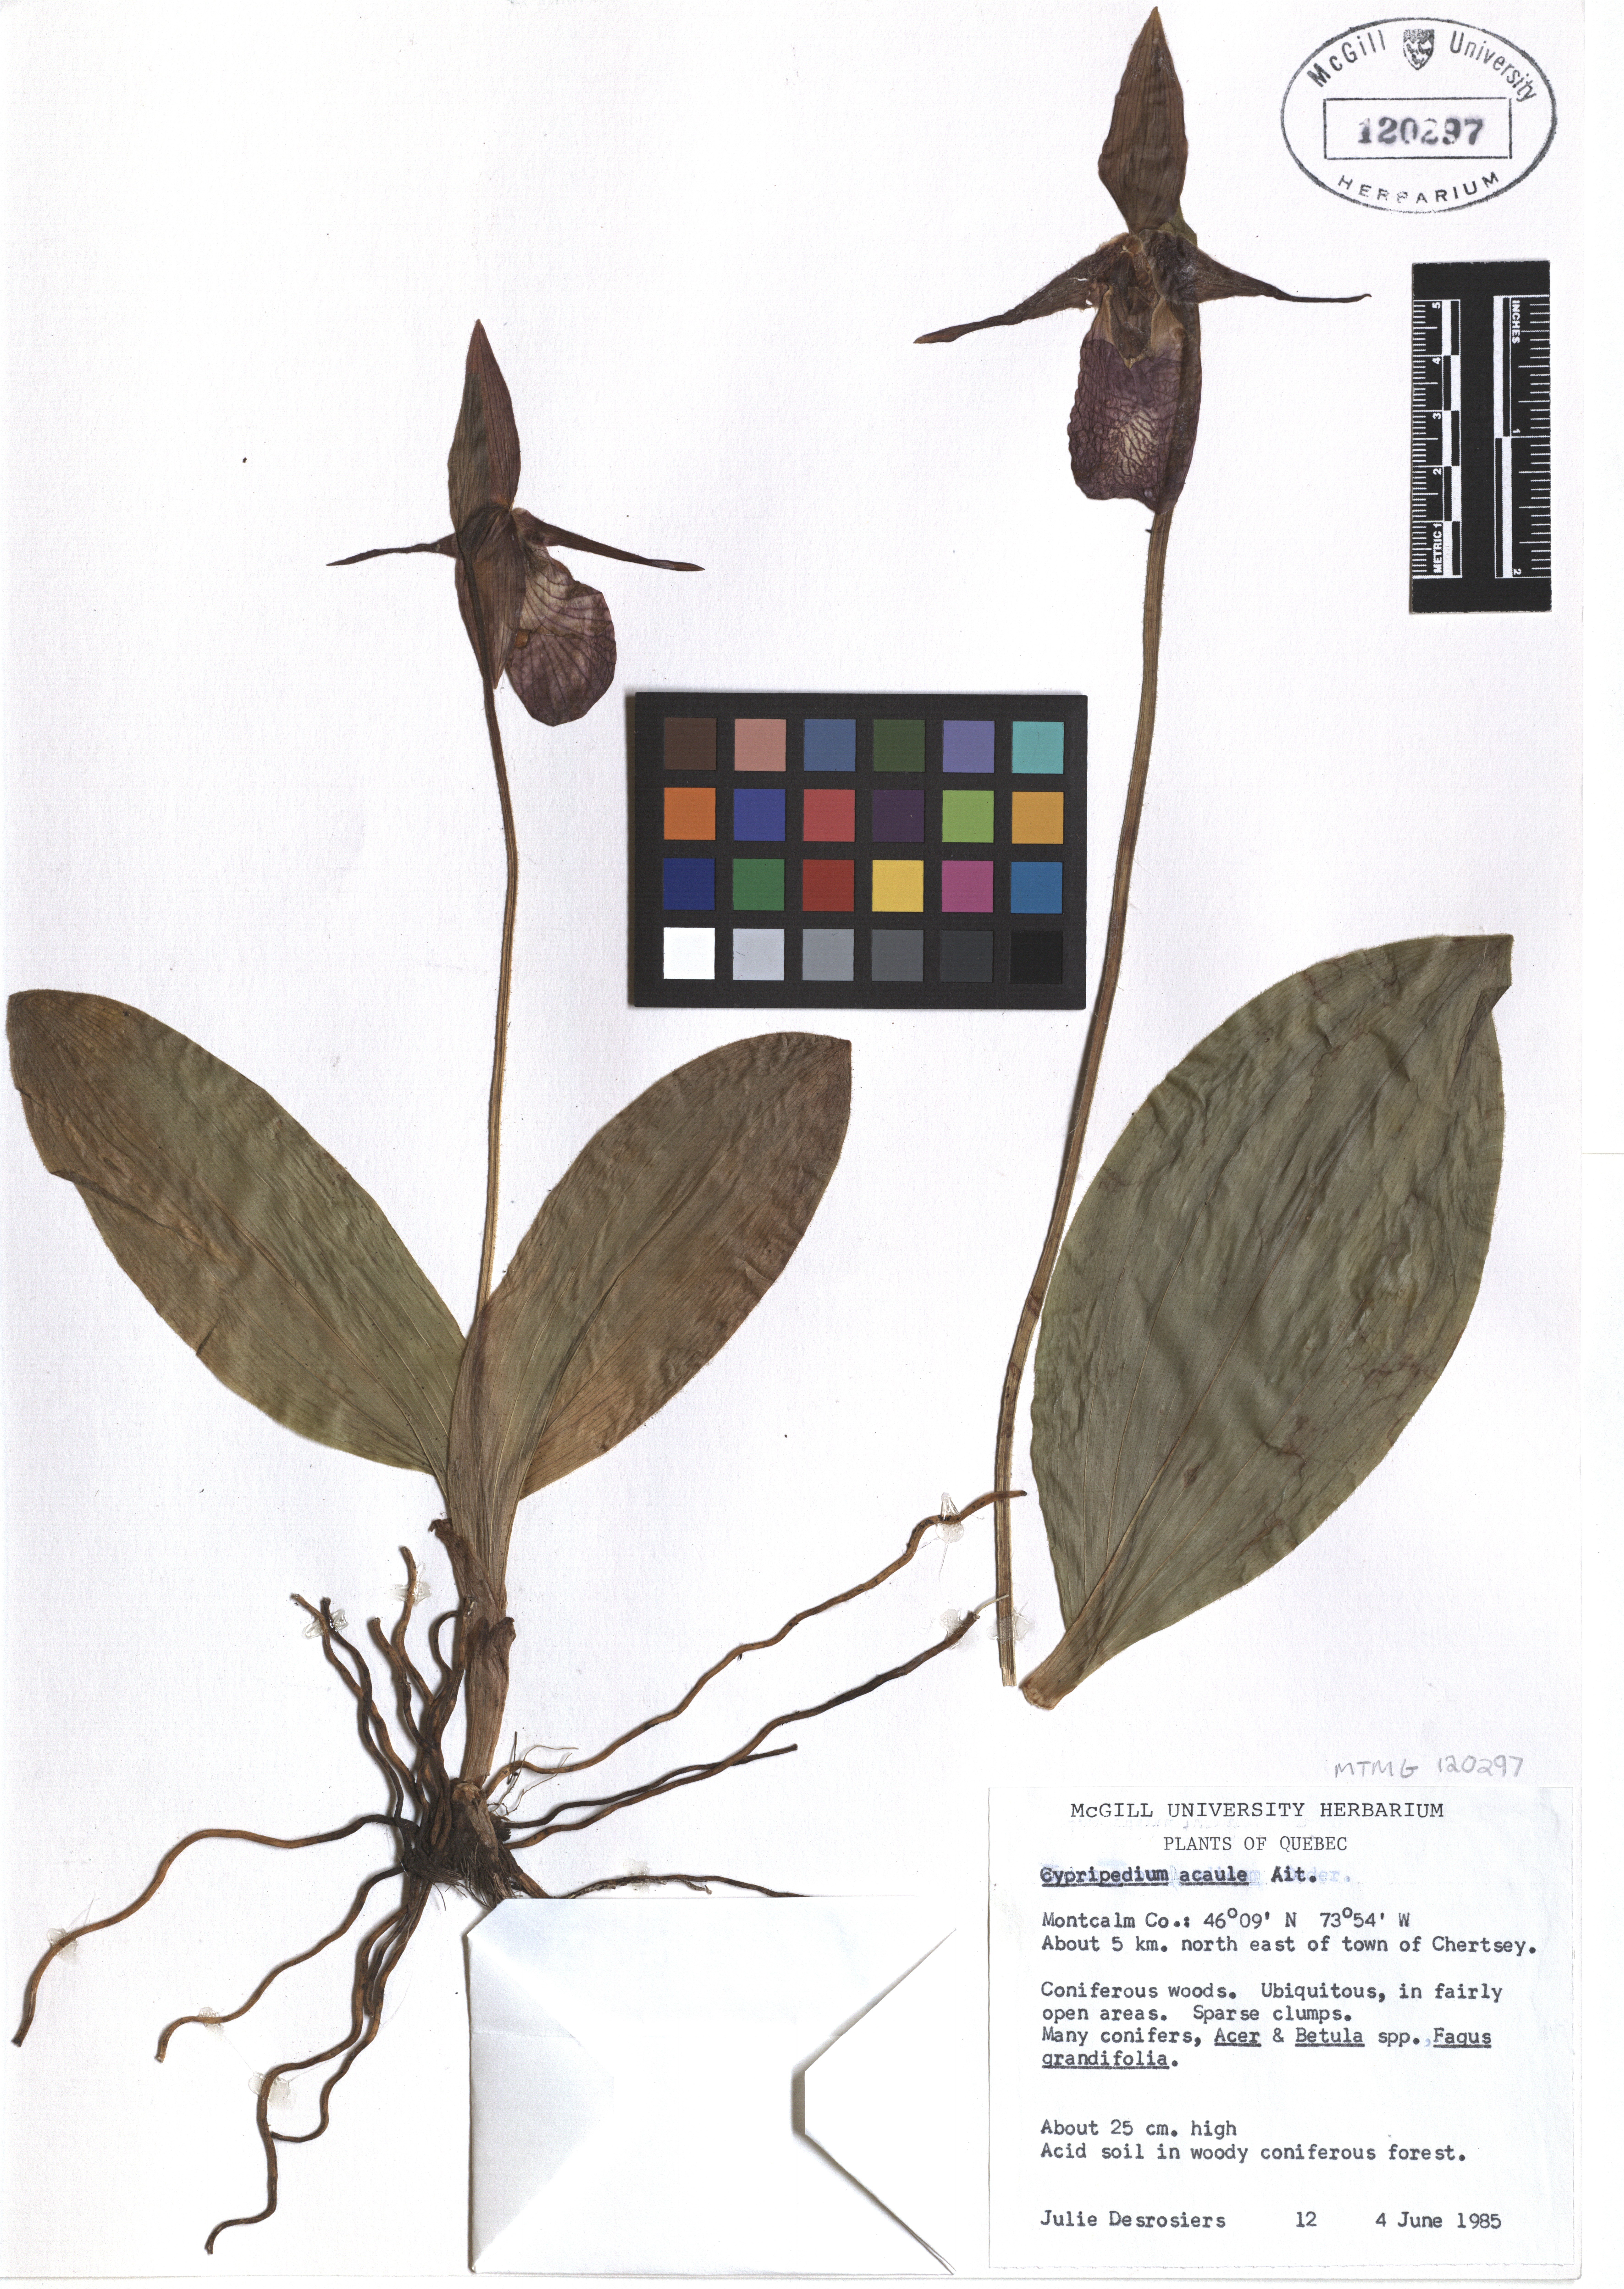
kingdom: Plantae
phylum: Tracheophyta
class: Liliopsida
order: Asparagales
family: Orchidaceae
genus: Cypripedium
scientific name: Cypripedium acaule
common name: Pink lady's-slipper
